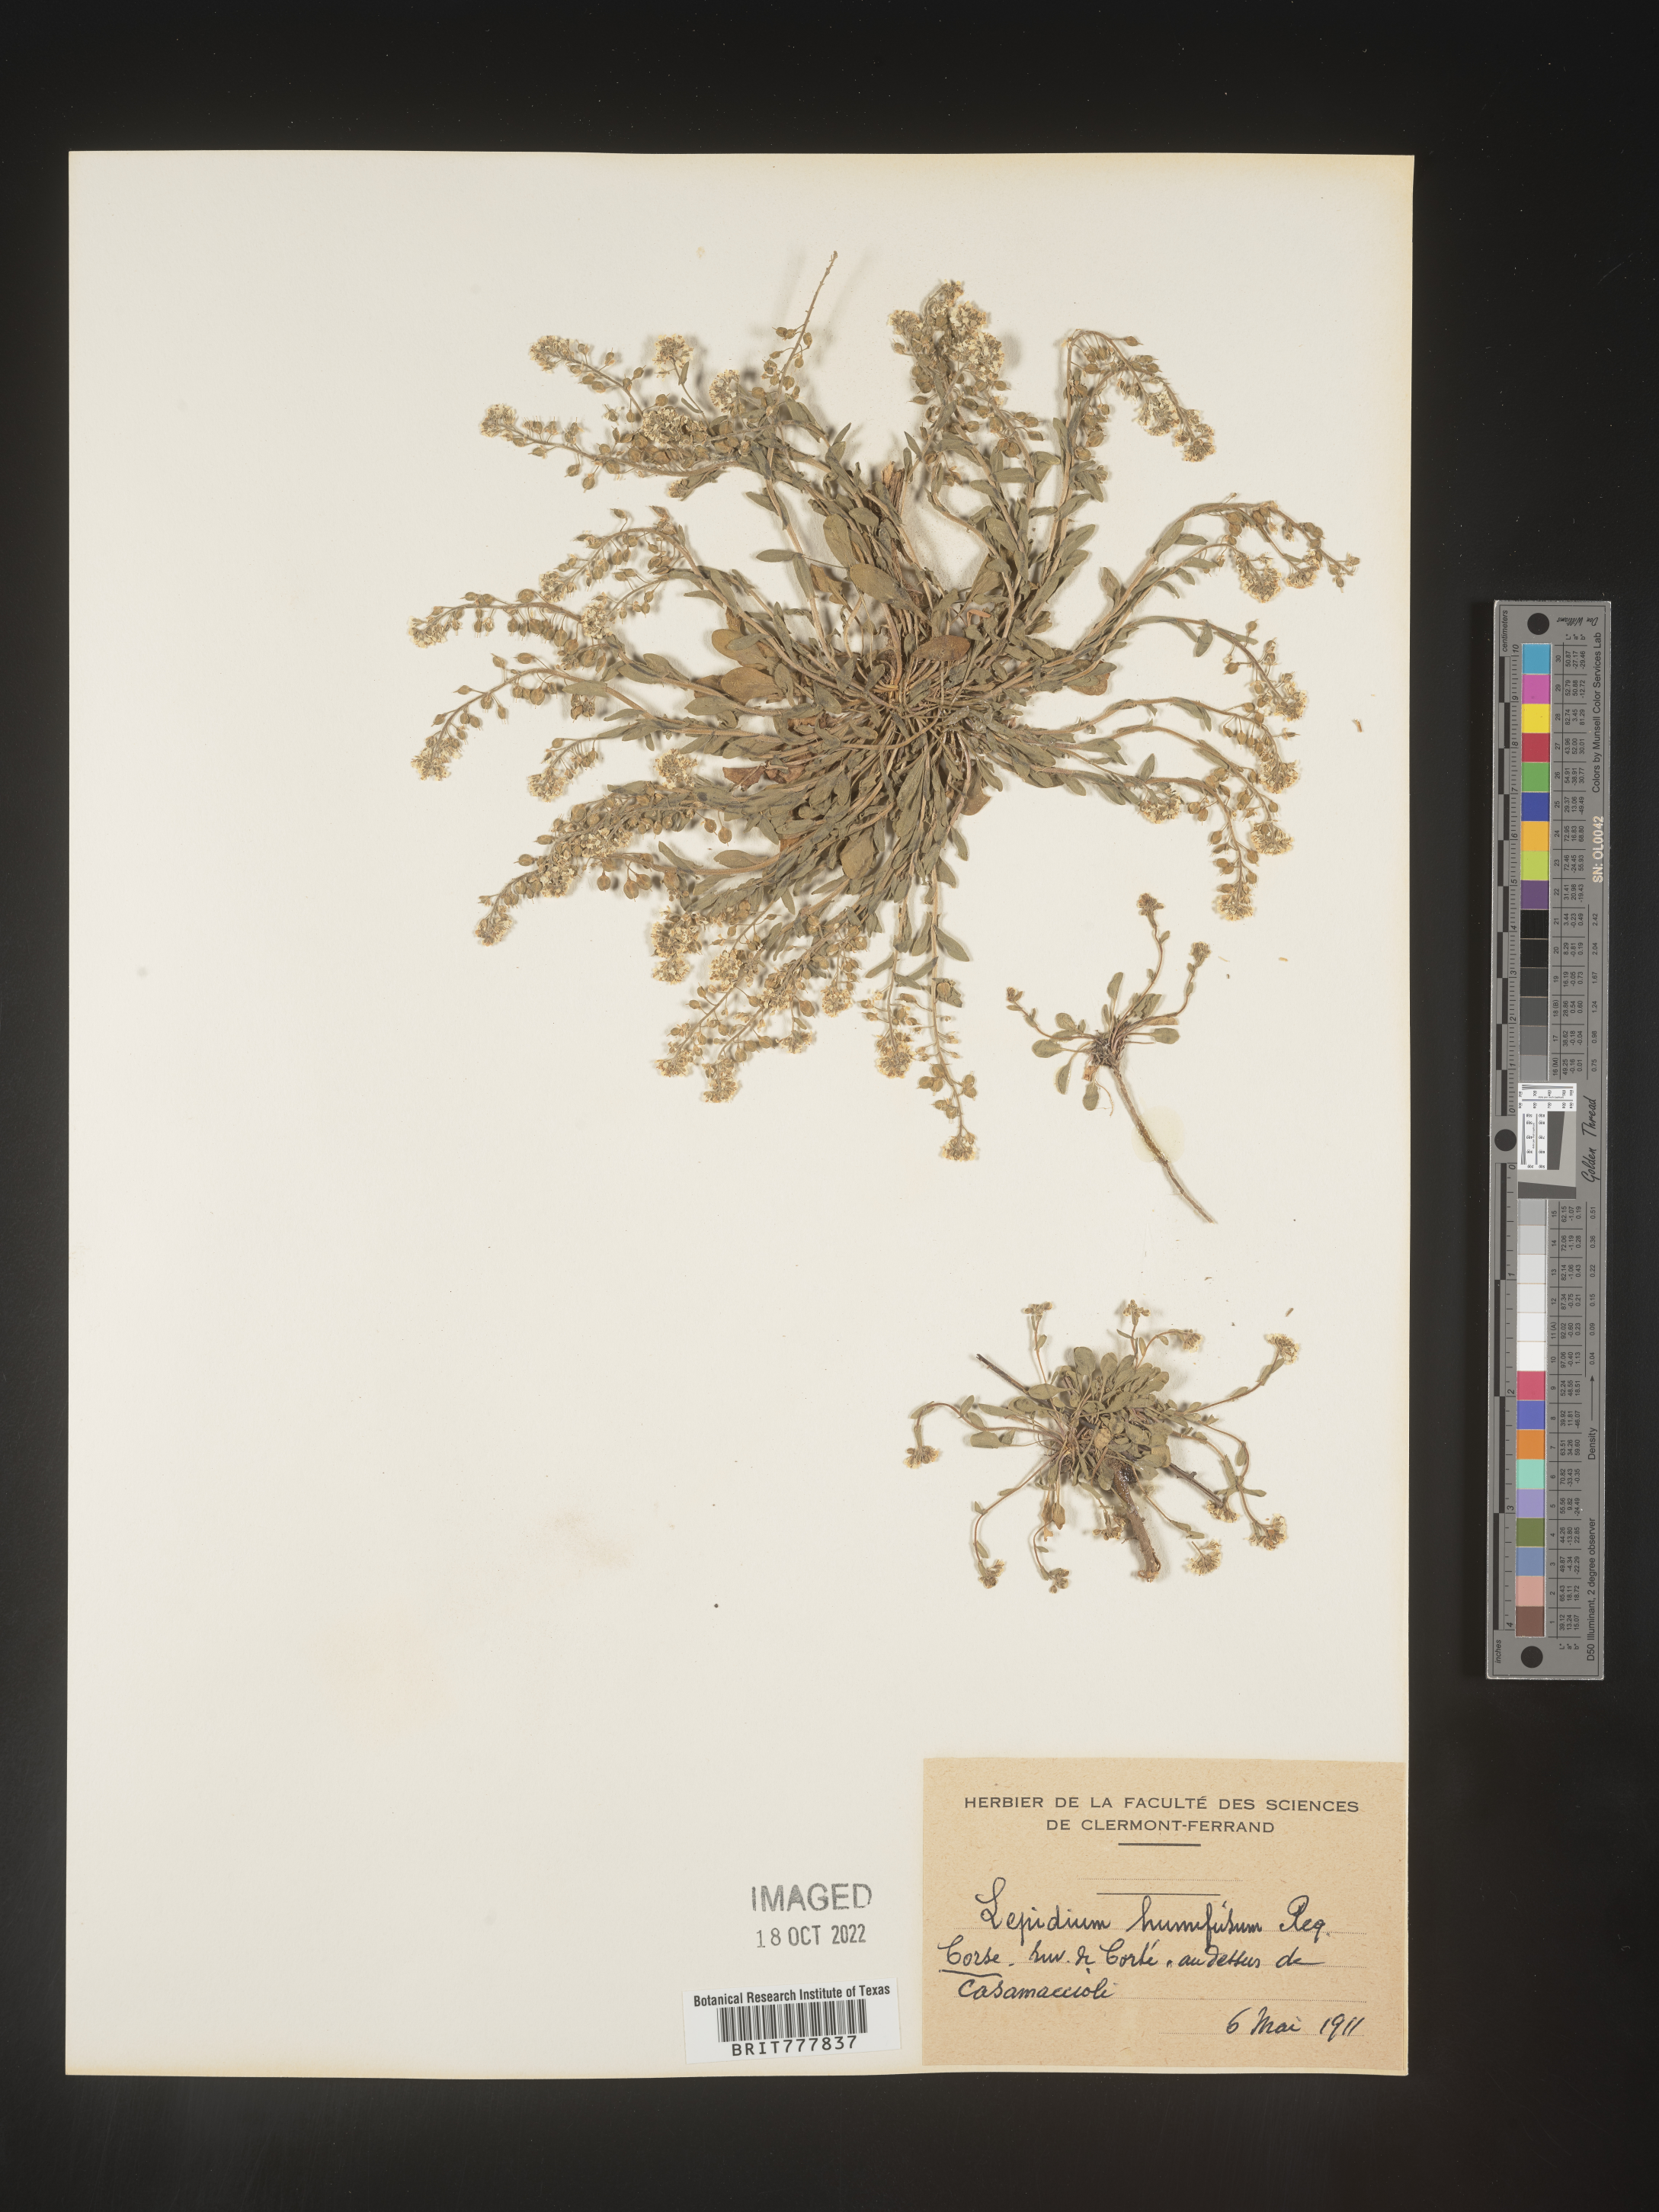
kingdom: Plantae
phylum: Tracheophyta
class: Magnoliopsida
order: Brassicales
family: Brassicaceae
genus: Lepidium
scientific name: Lepidium
